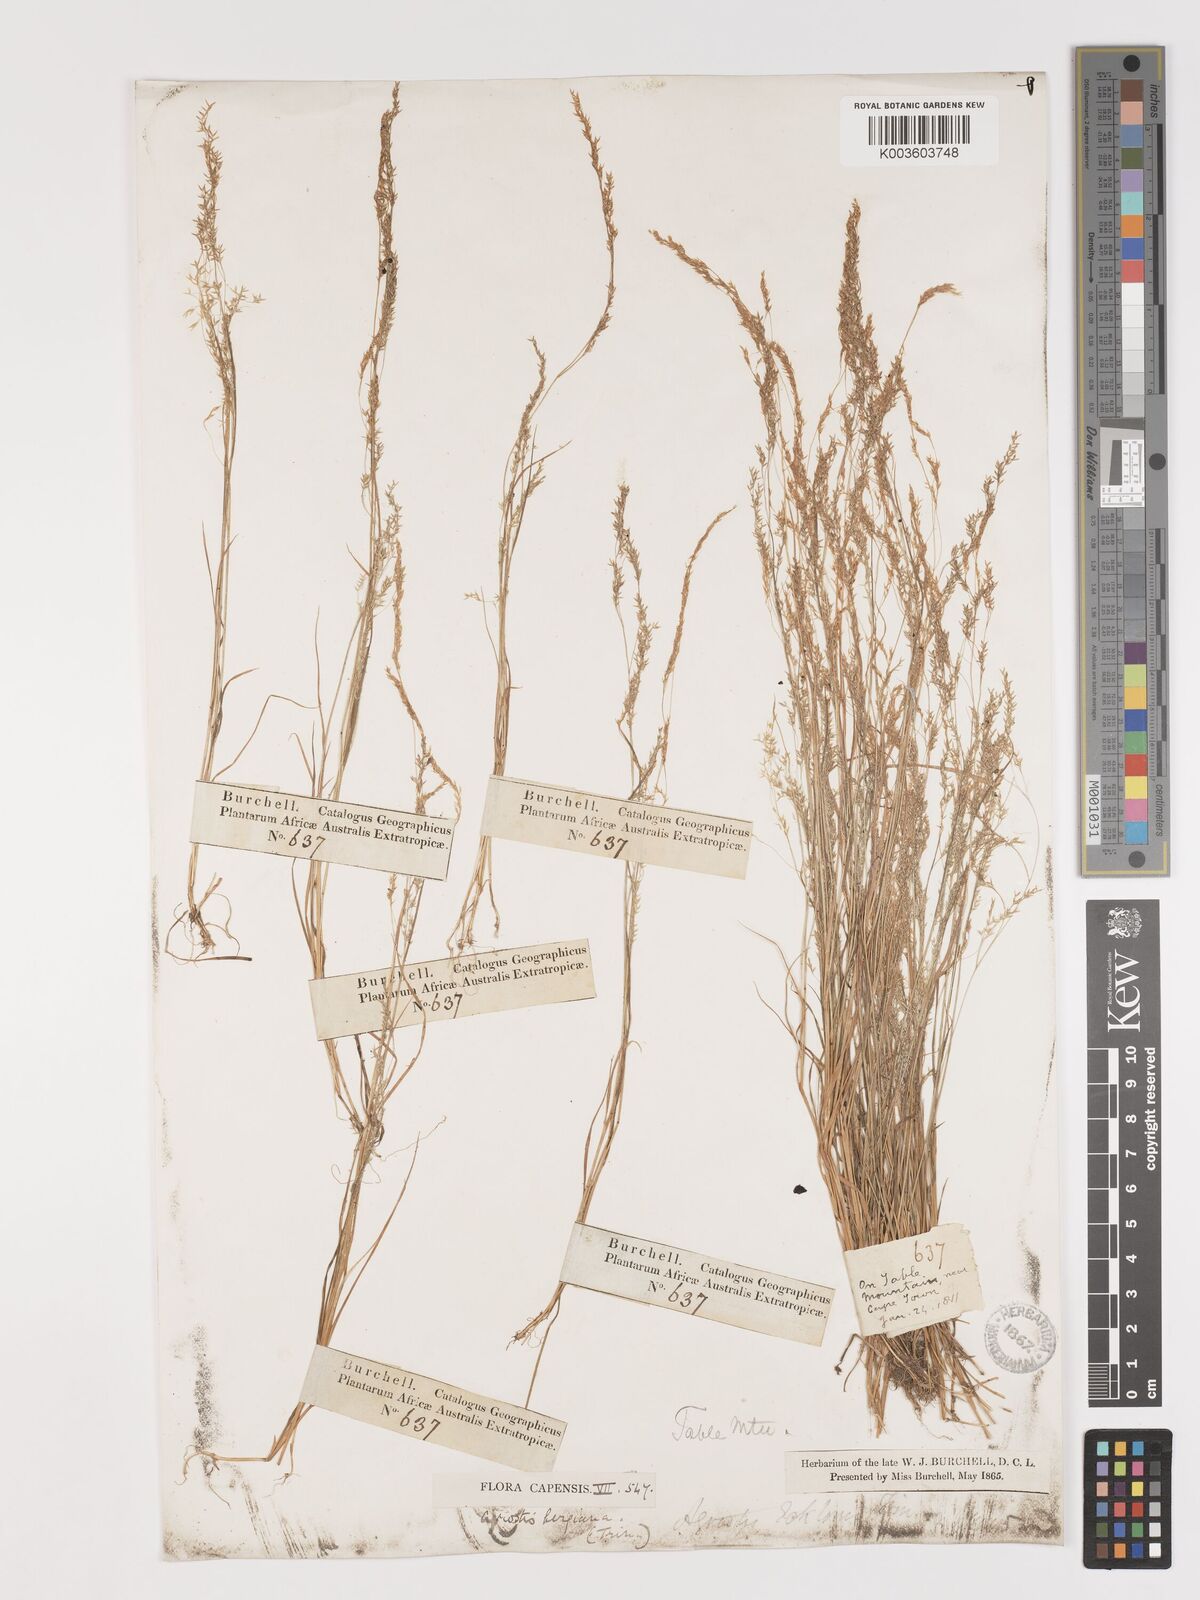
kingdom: Plantae
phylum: Tracheophyta
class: Liliopsida
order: Poales
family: Poaceae
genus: Agrostis
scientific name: Agrostis bergiana
